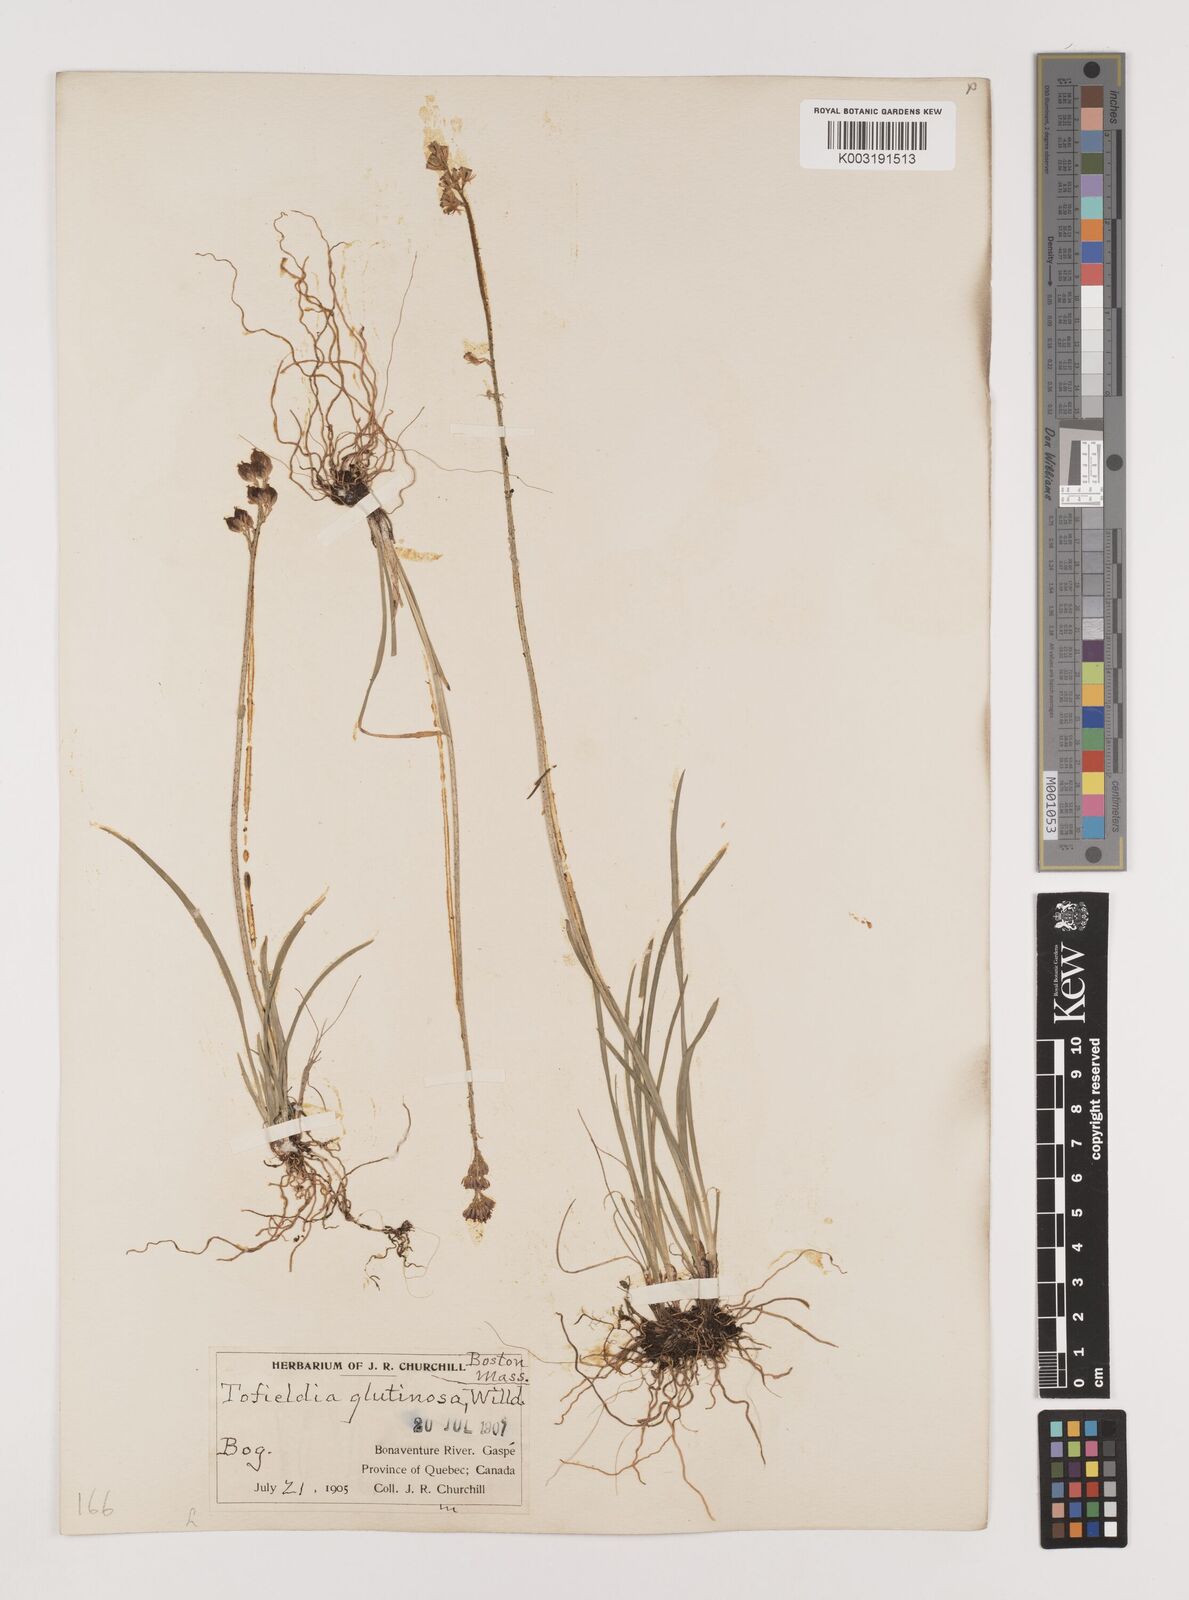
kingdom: Plantae
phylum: Tracheophyta
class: Liliopsida
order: Alismatales
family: Tofieldiaceae
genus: Triantha
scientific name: Triantha glutinosa
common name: Glutinous tofieldia
